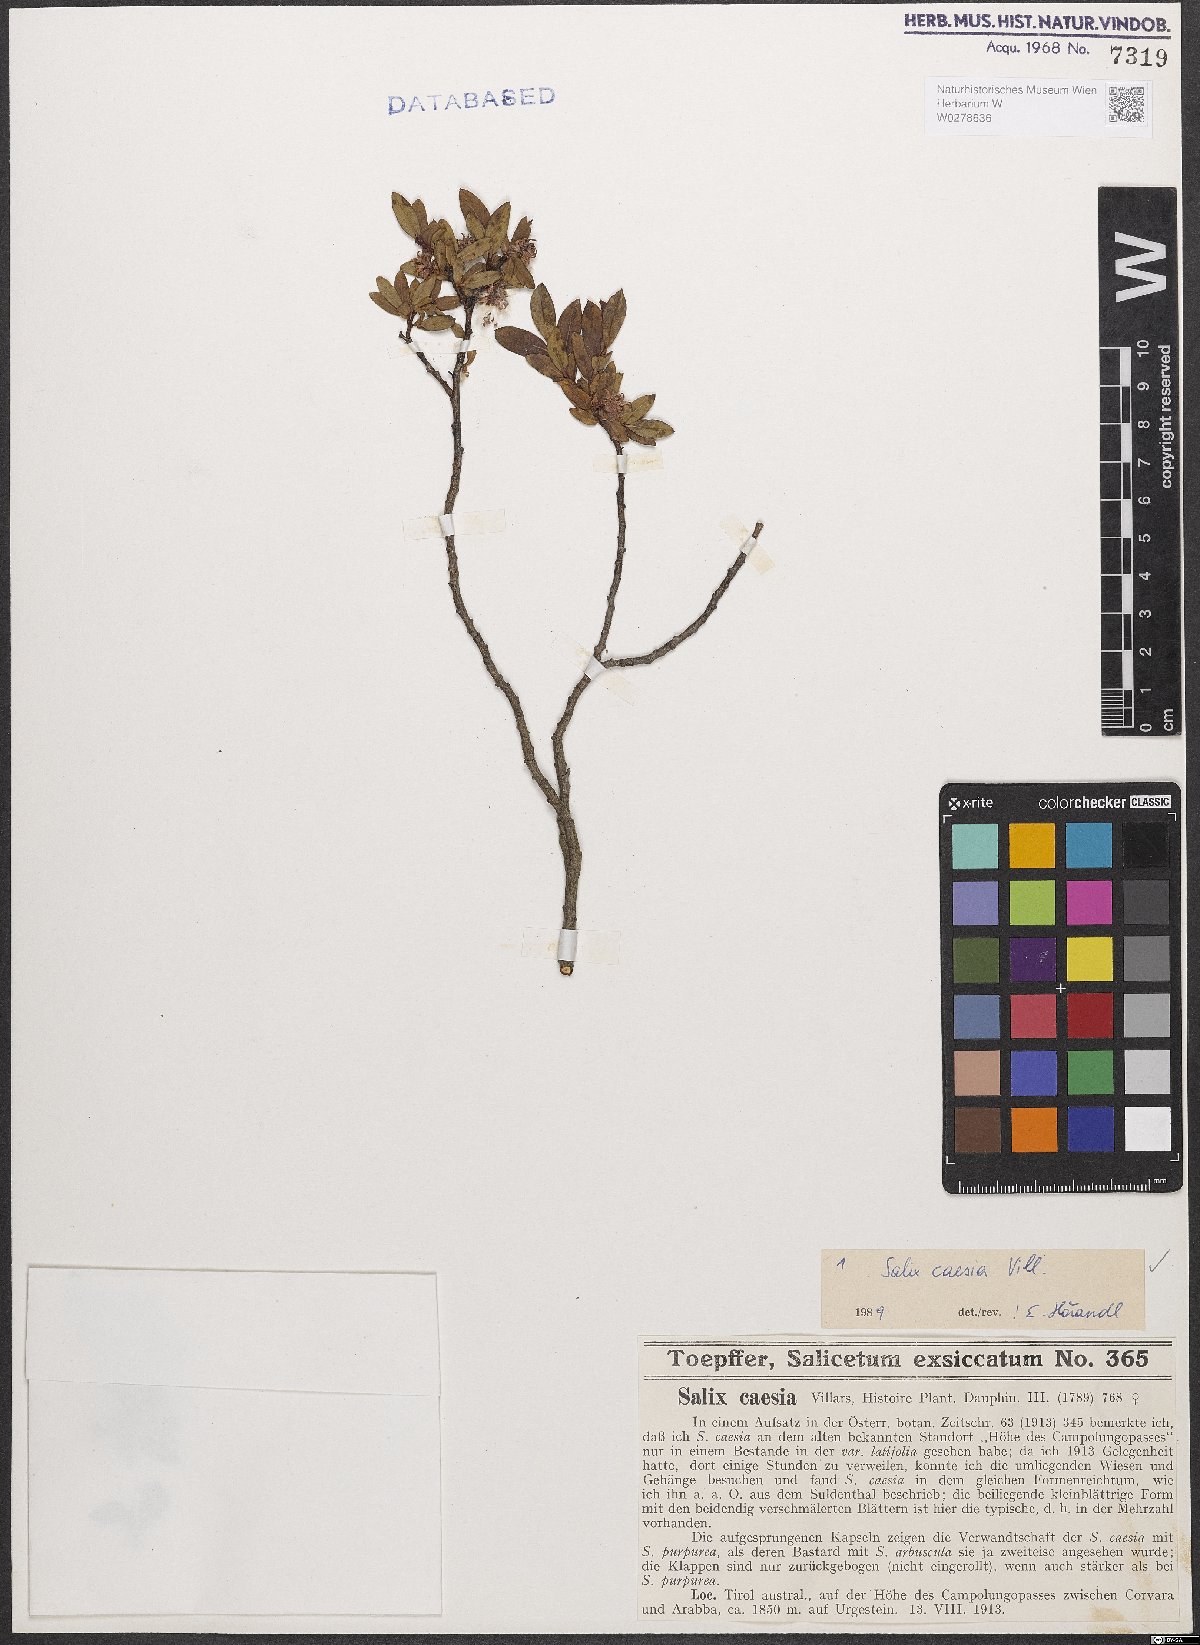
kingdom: Plantae
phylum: Tracheophyta
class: Magnoliopsida
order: Malpighiales
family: Salicaceae
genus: Salix
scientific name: Salix caesia
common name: Blue willow
